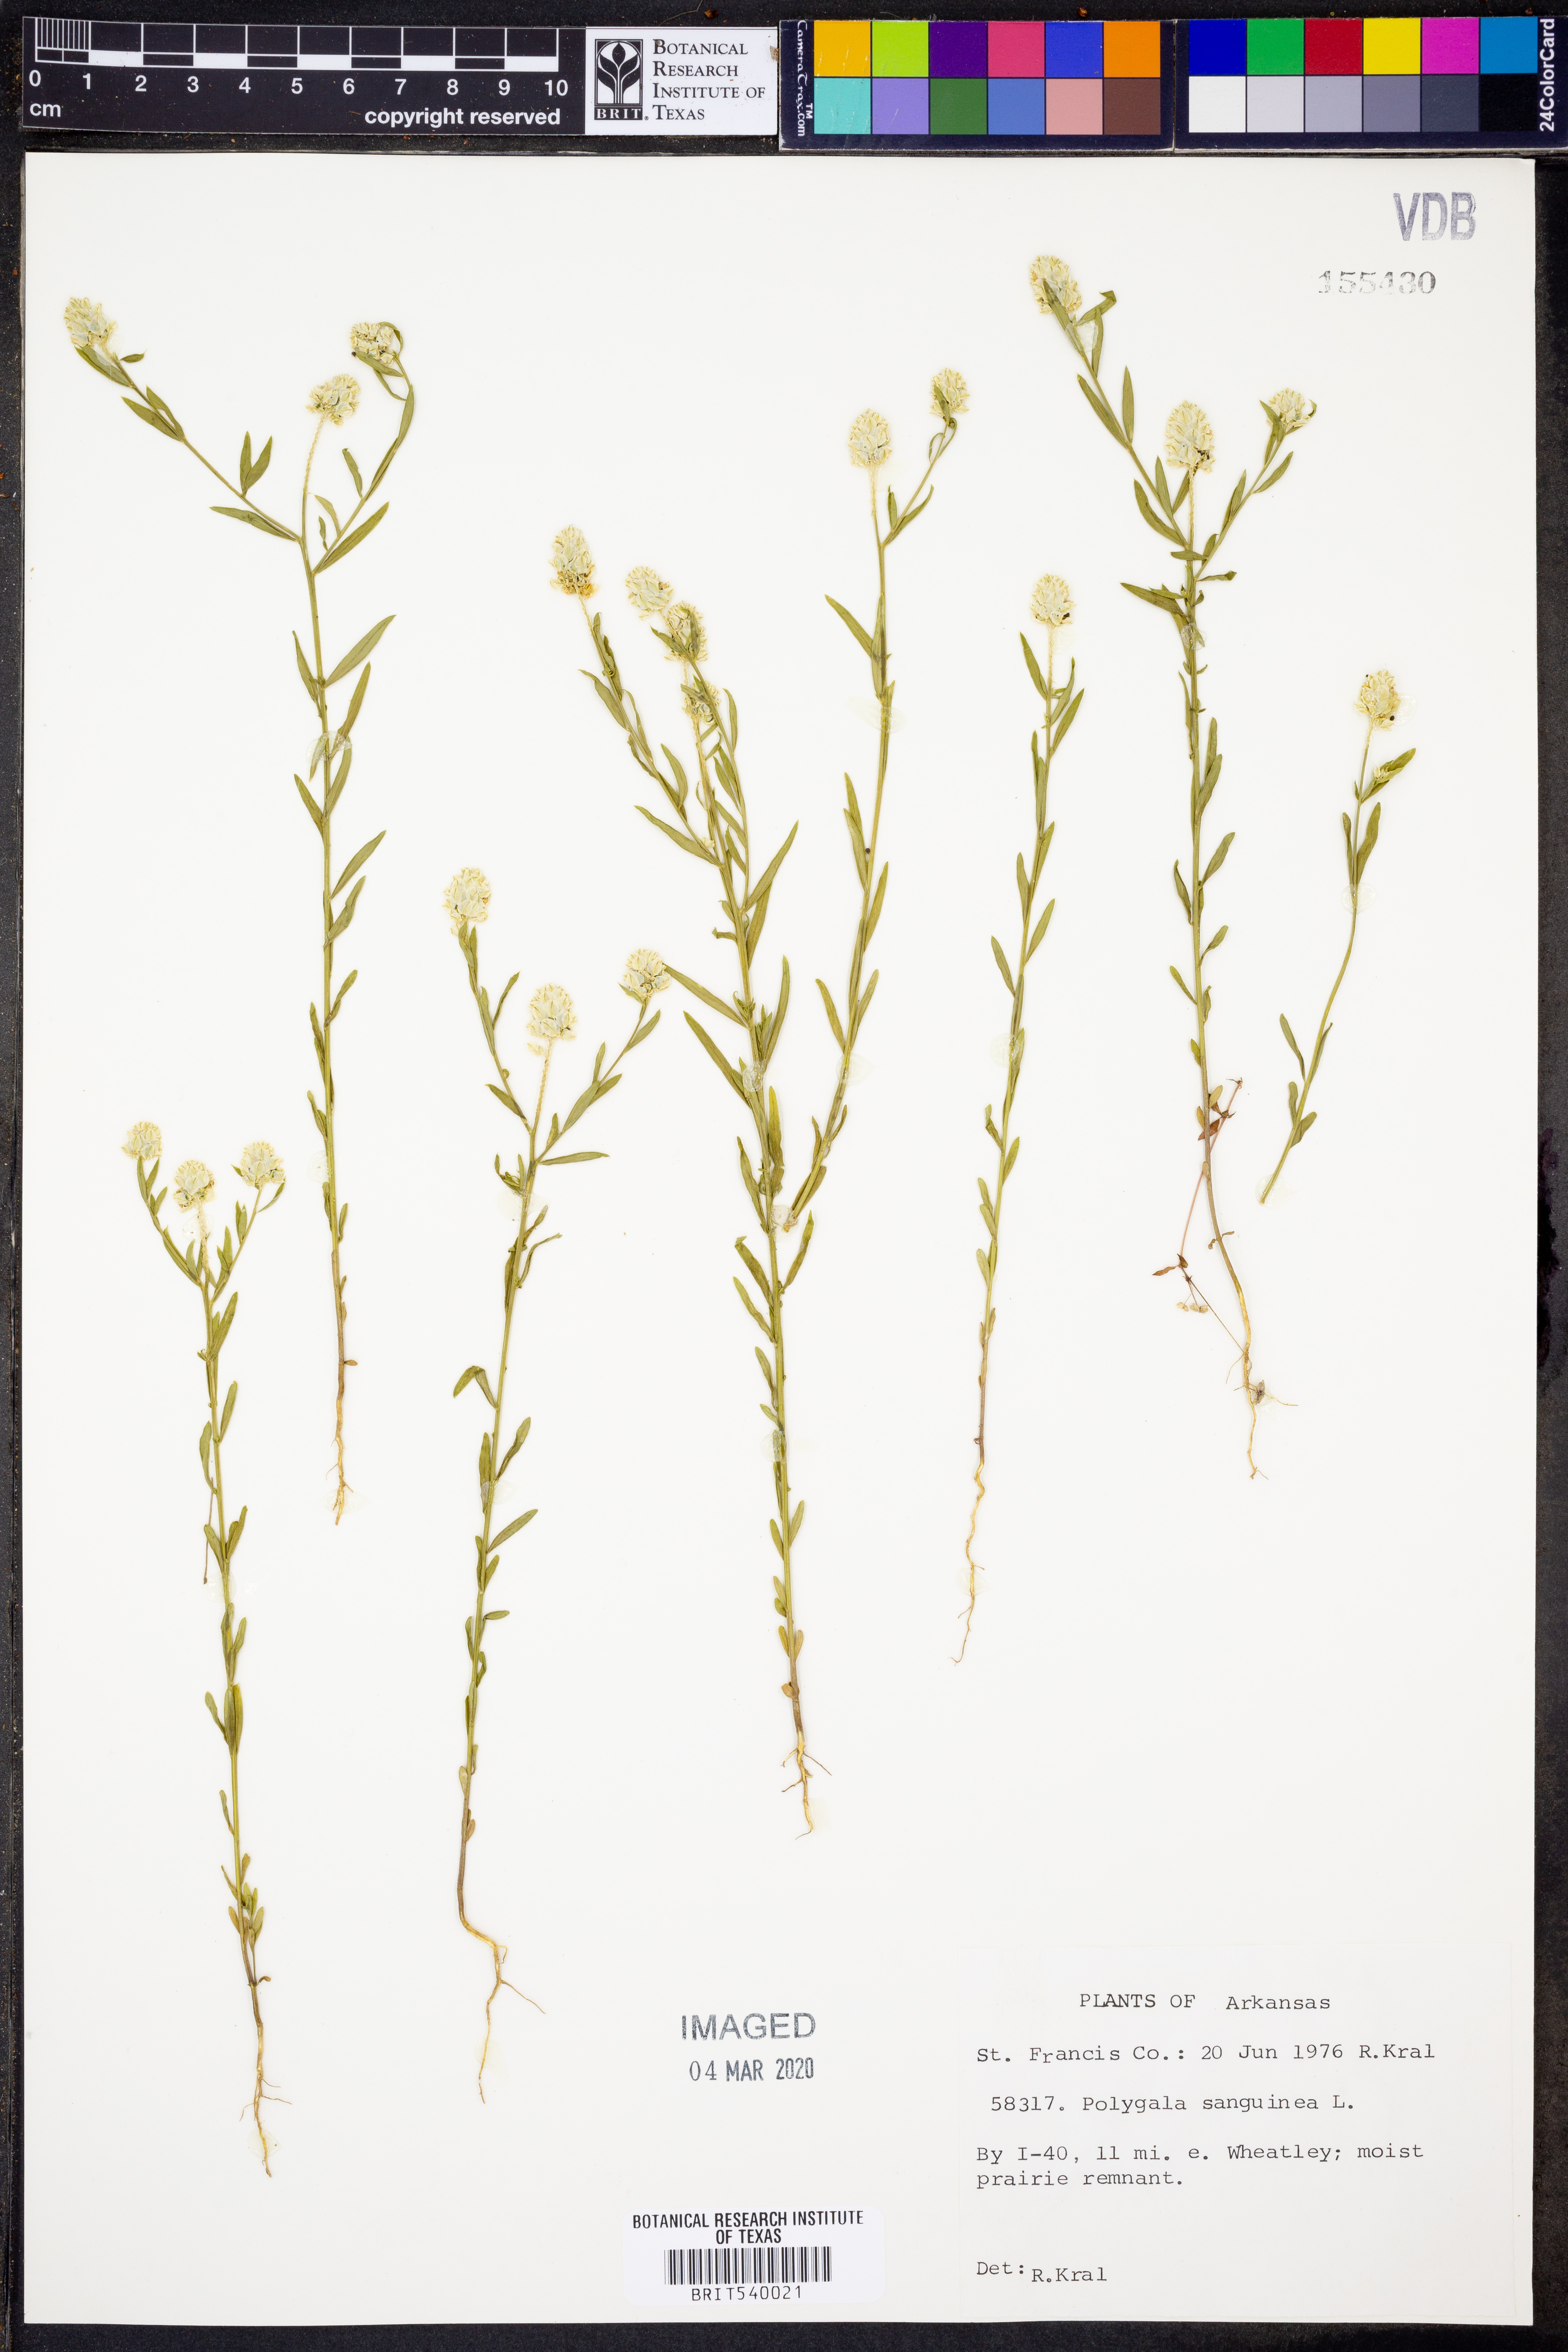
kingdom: Plantae
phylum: Tracheophyta
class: Magnoliopsida
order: Fabales
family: Polygalaceae
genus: Polygala
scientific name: Polygala sanguinea
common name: Blood milkwort
